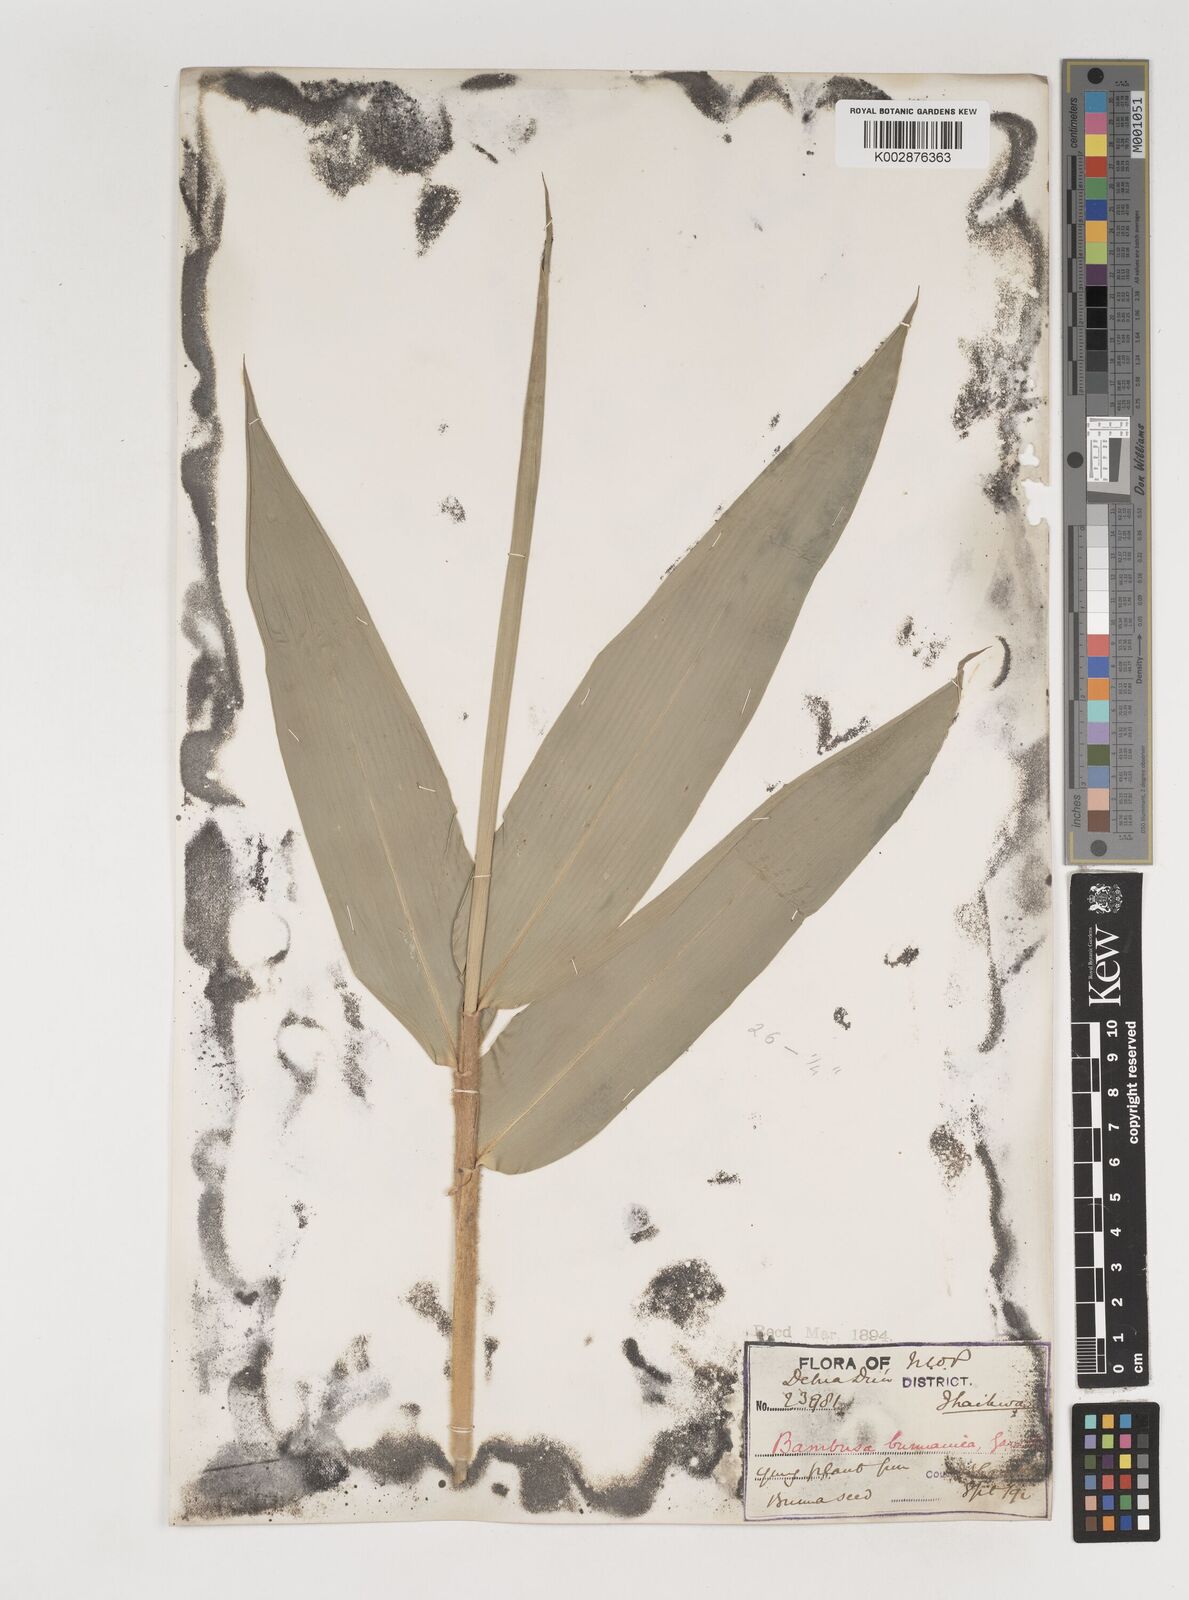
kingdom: Plantae
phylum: Tracheophyta
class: Liliopsida
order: Poales
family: Poaceae
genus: Bambusa
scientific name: Bambusa burmanica
